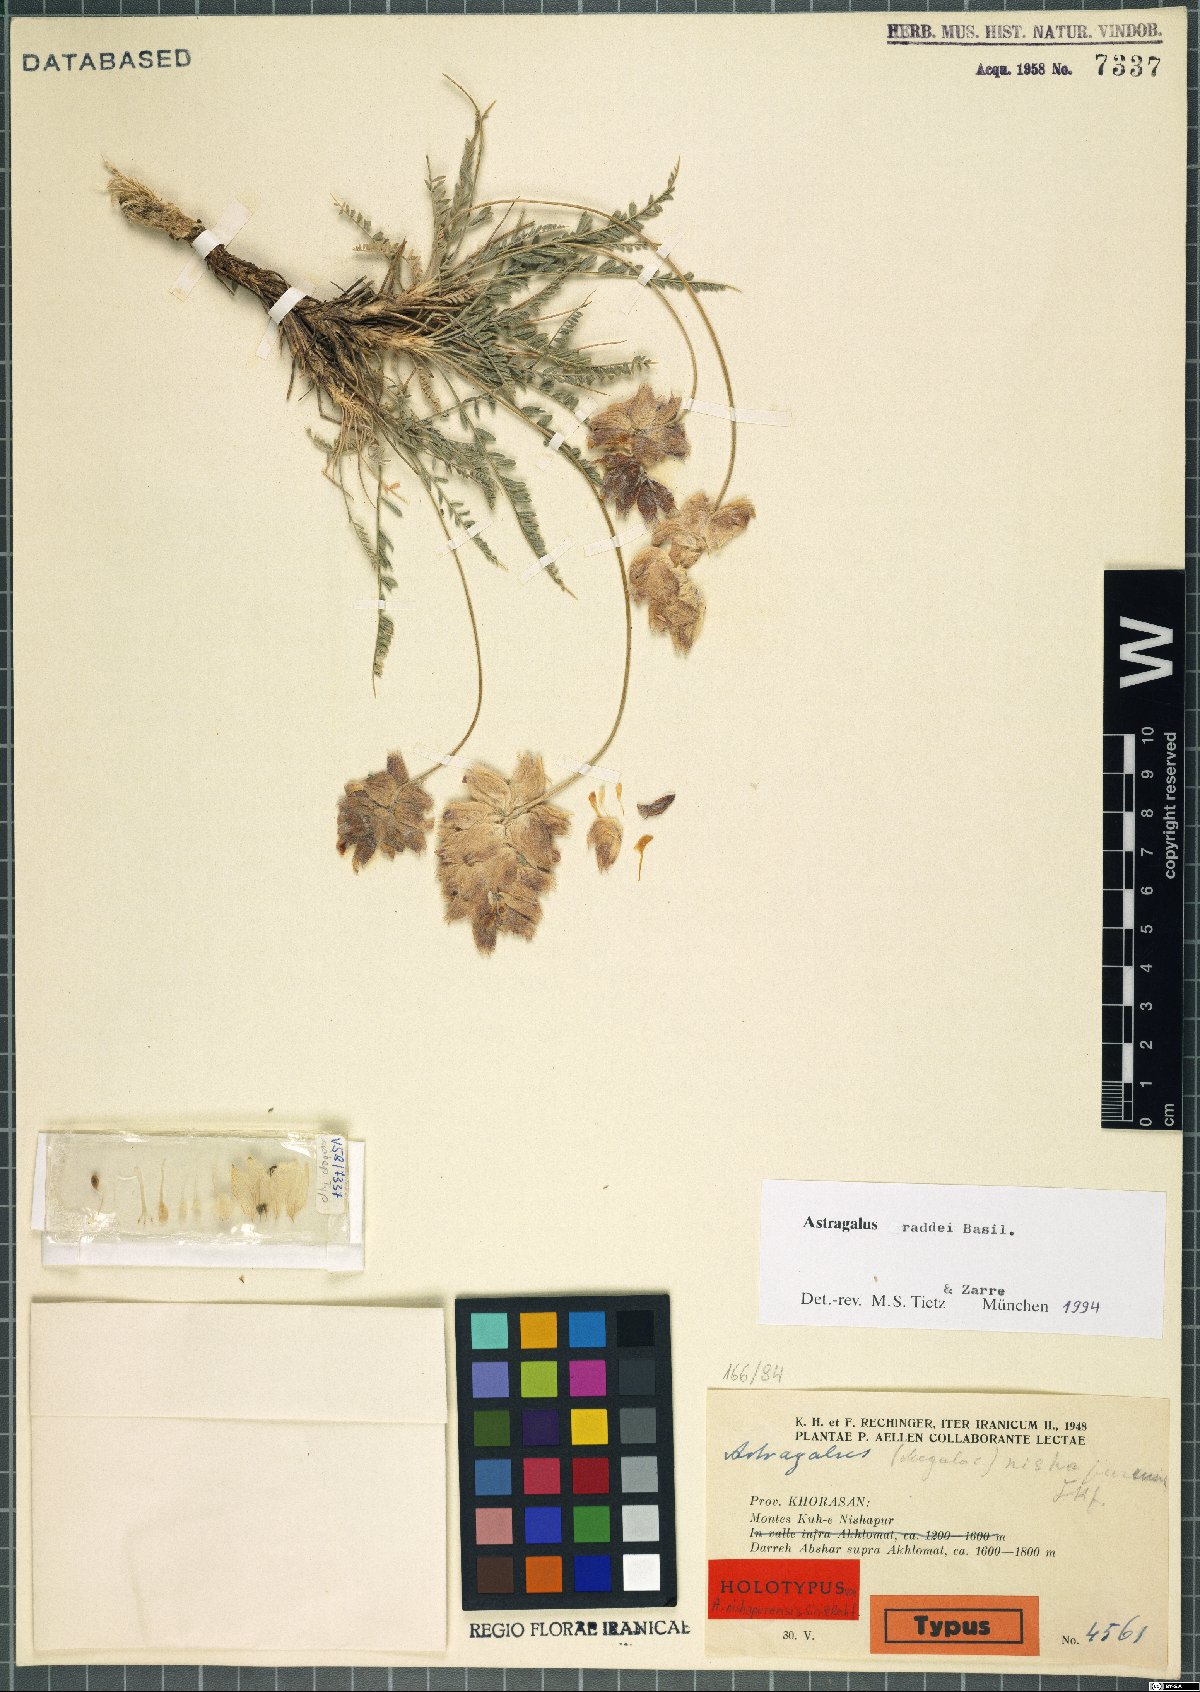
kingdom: Plantae
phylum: Tracheophyta
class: Magnoliopsida
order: Fabales
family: Fabaceae
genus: Astragalus
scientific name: Astragalus raddei
